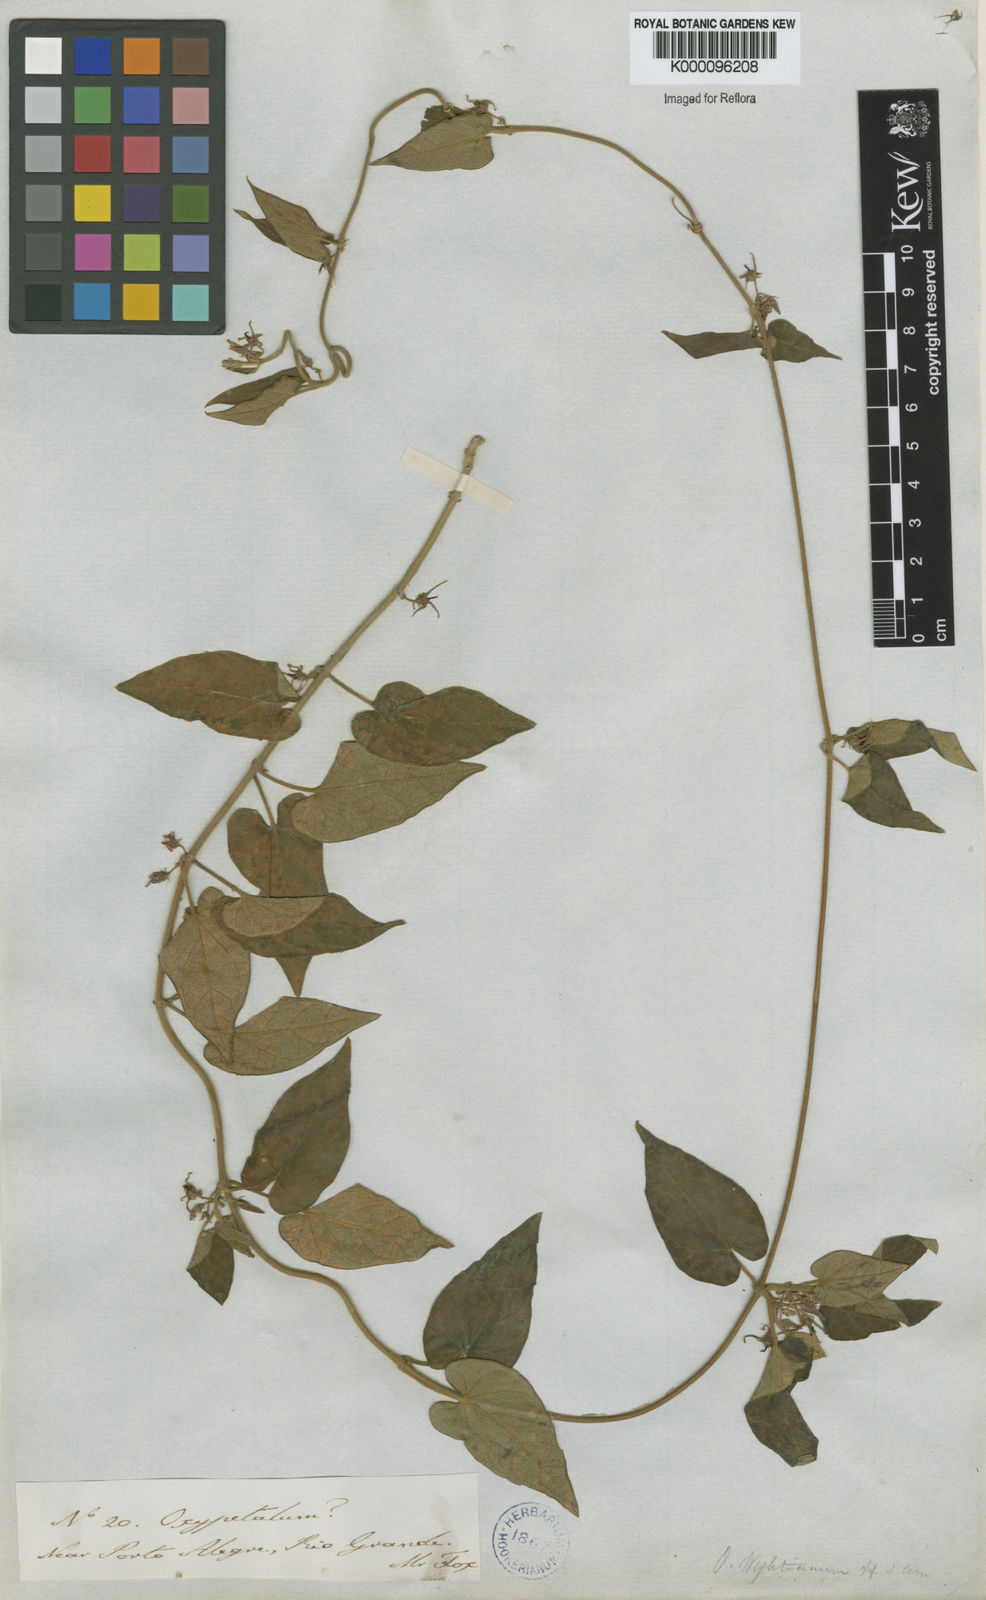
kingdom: Plantae
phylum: Tracheophyta
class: Magnoliopsida
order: Gentianales
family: Apocynaceae
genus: Oxypetalum
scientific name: Oxypetalum wightianum
